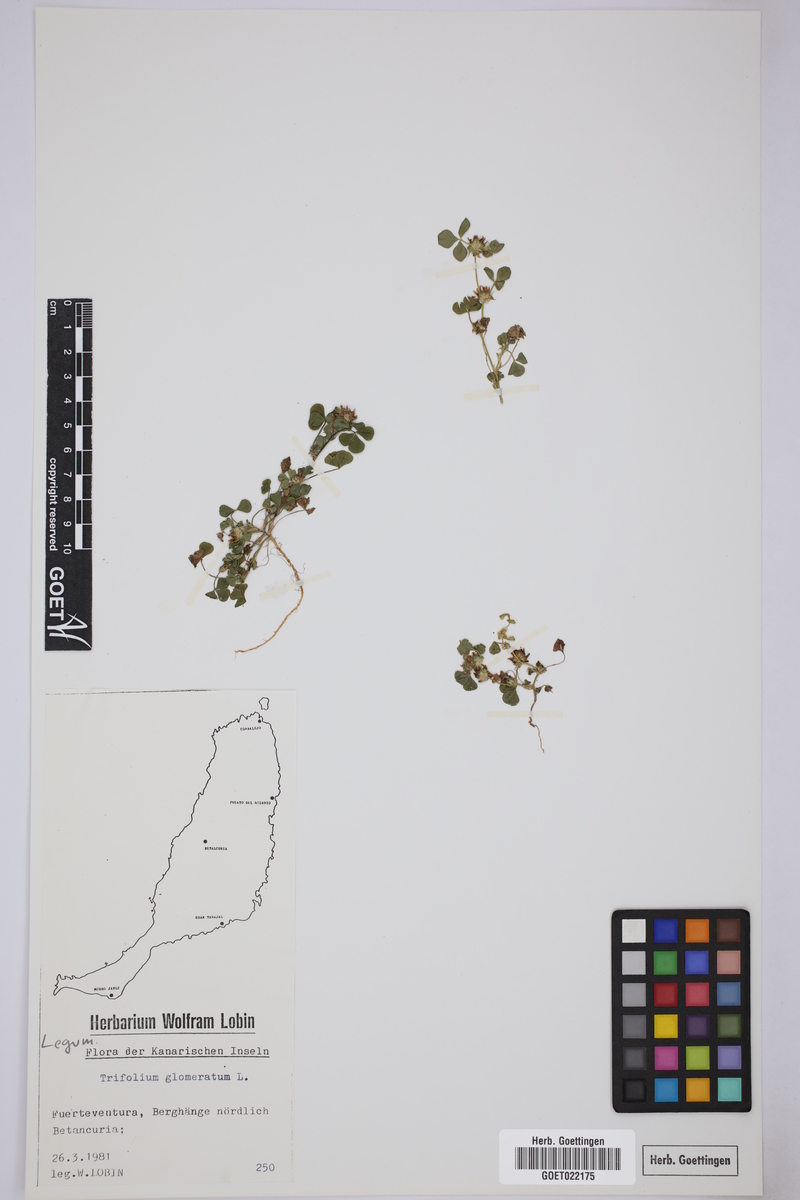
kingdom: Plantae
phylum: Tracheophyta
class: Magnoliopsida
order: Fabales
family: Fabaceae
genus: Trifolium
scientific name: Trifolium glomeratum
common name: Clustered clover
